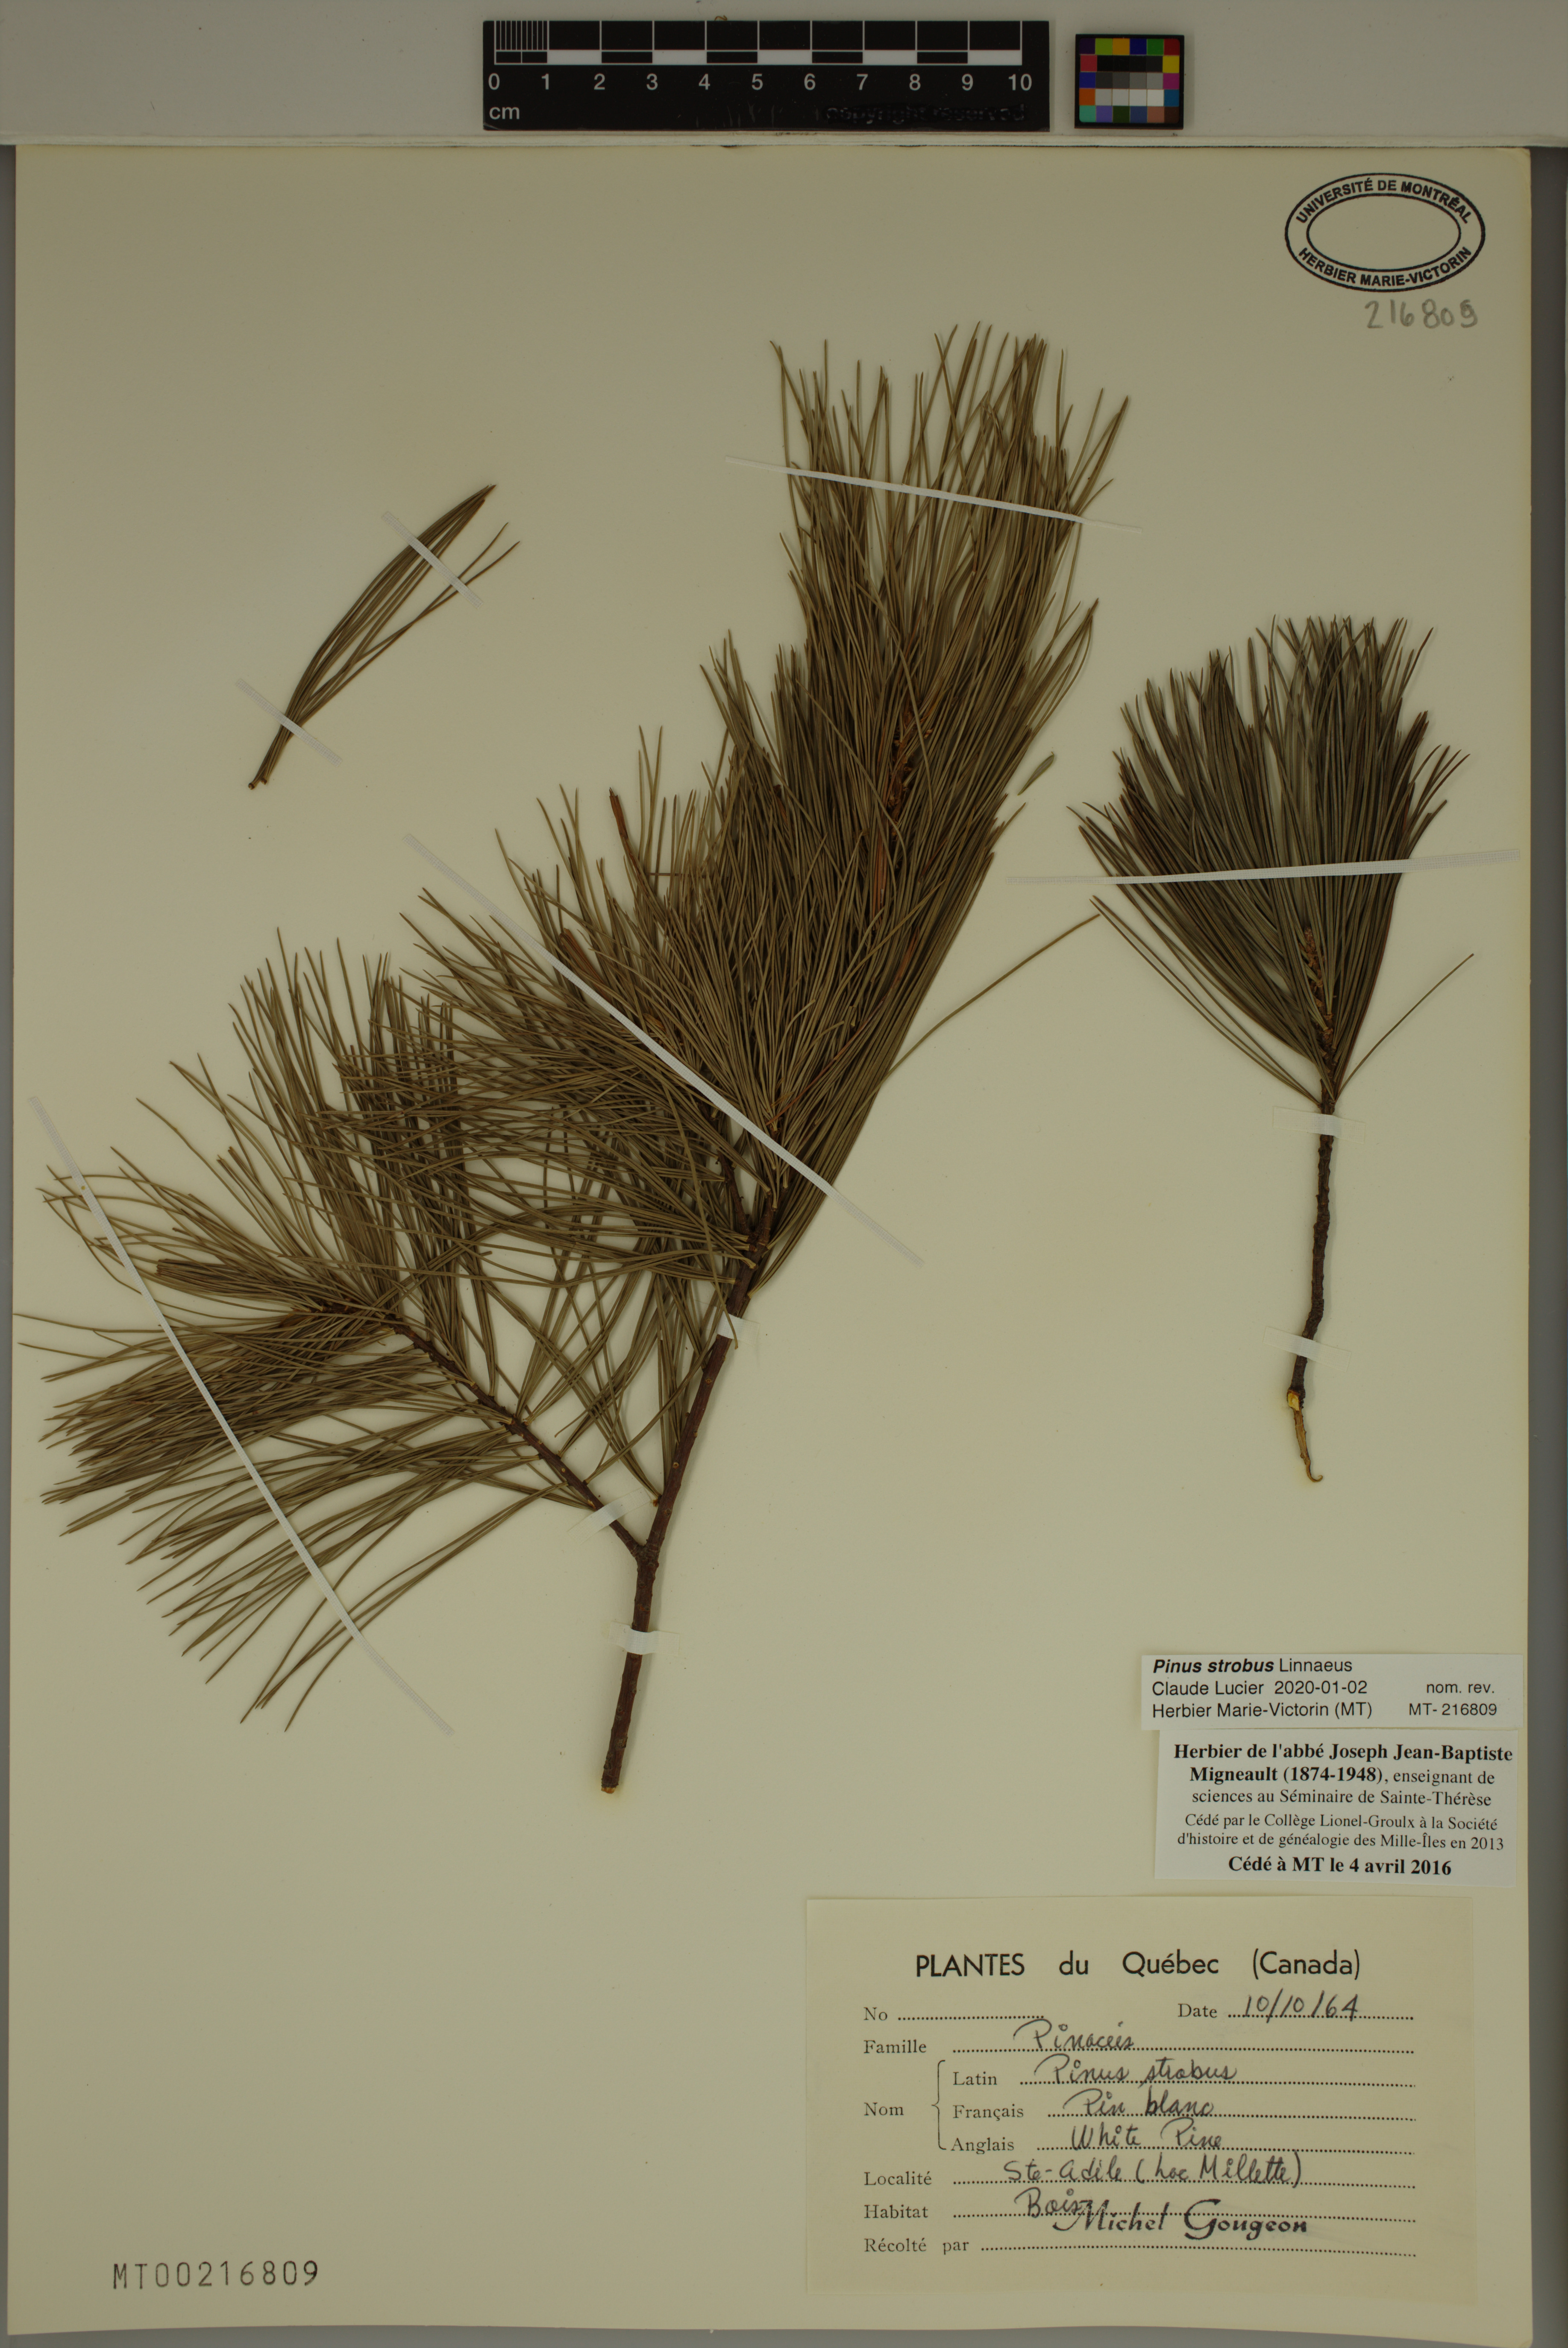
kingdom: Plantae
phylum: Tracheophyta
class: Pinopsida
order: Pinales
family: Pinaceae
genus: Pinus
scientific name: Pinus strobus
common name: Weymouth pine
